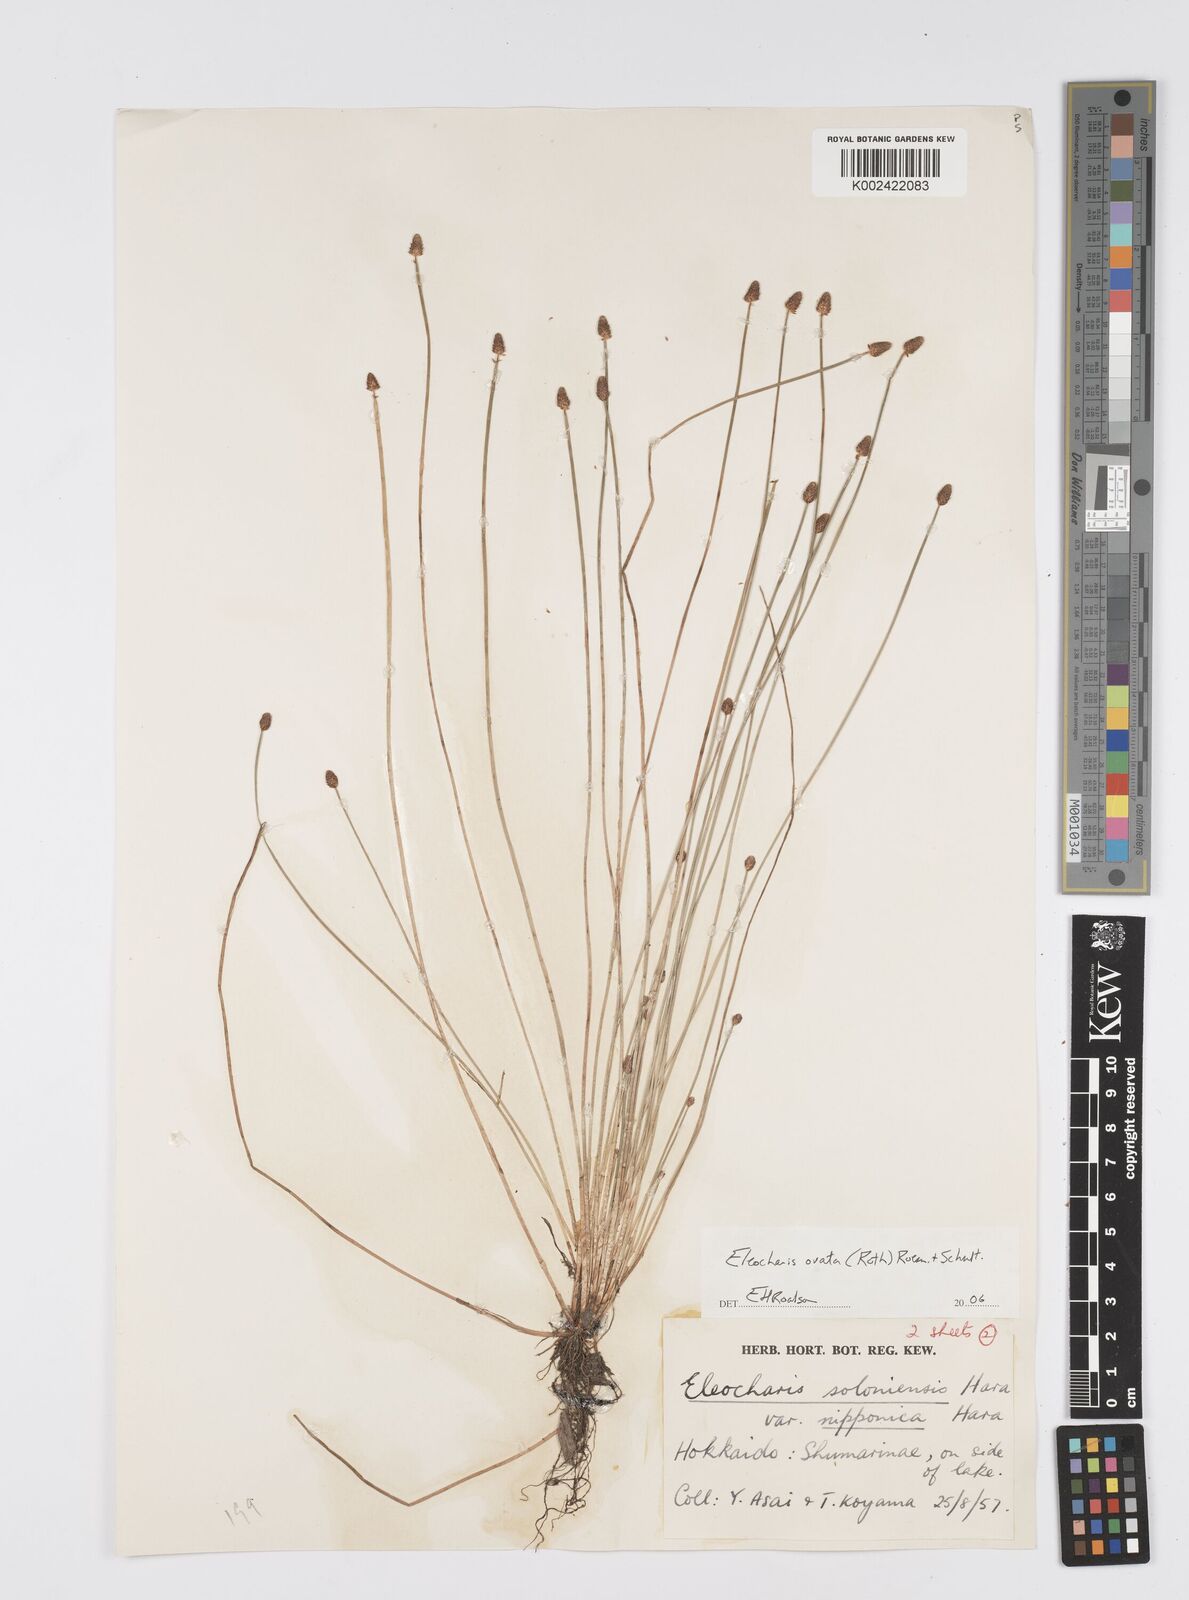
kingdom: Plantae
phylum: Tracheophyta
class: Liliopsida
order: Poales
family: Cyperaceae
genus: Eleocharis
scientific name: Eleocharis ovata
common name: Oval spike-rush
